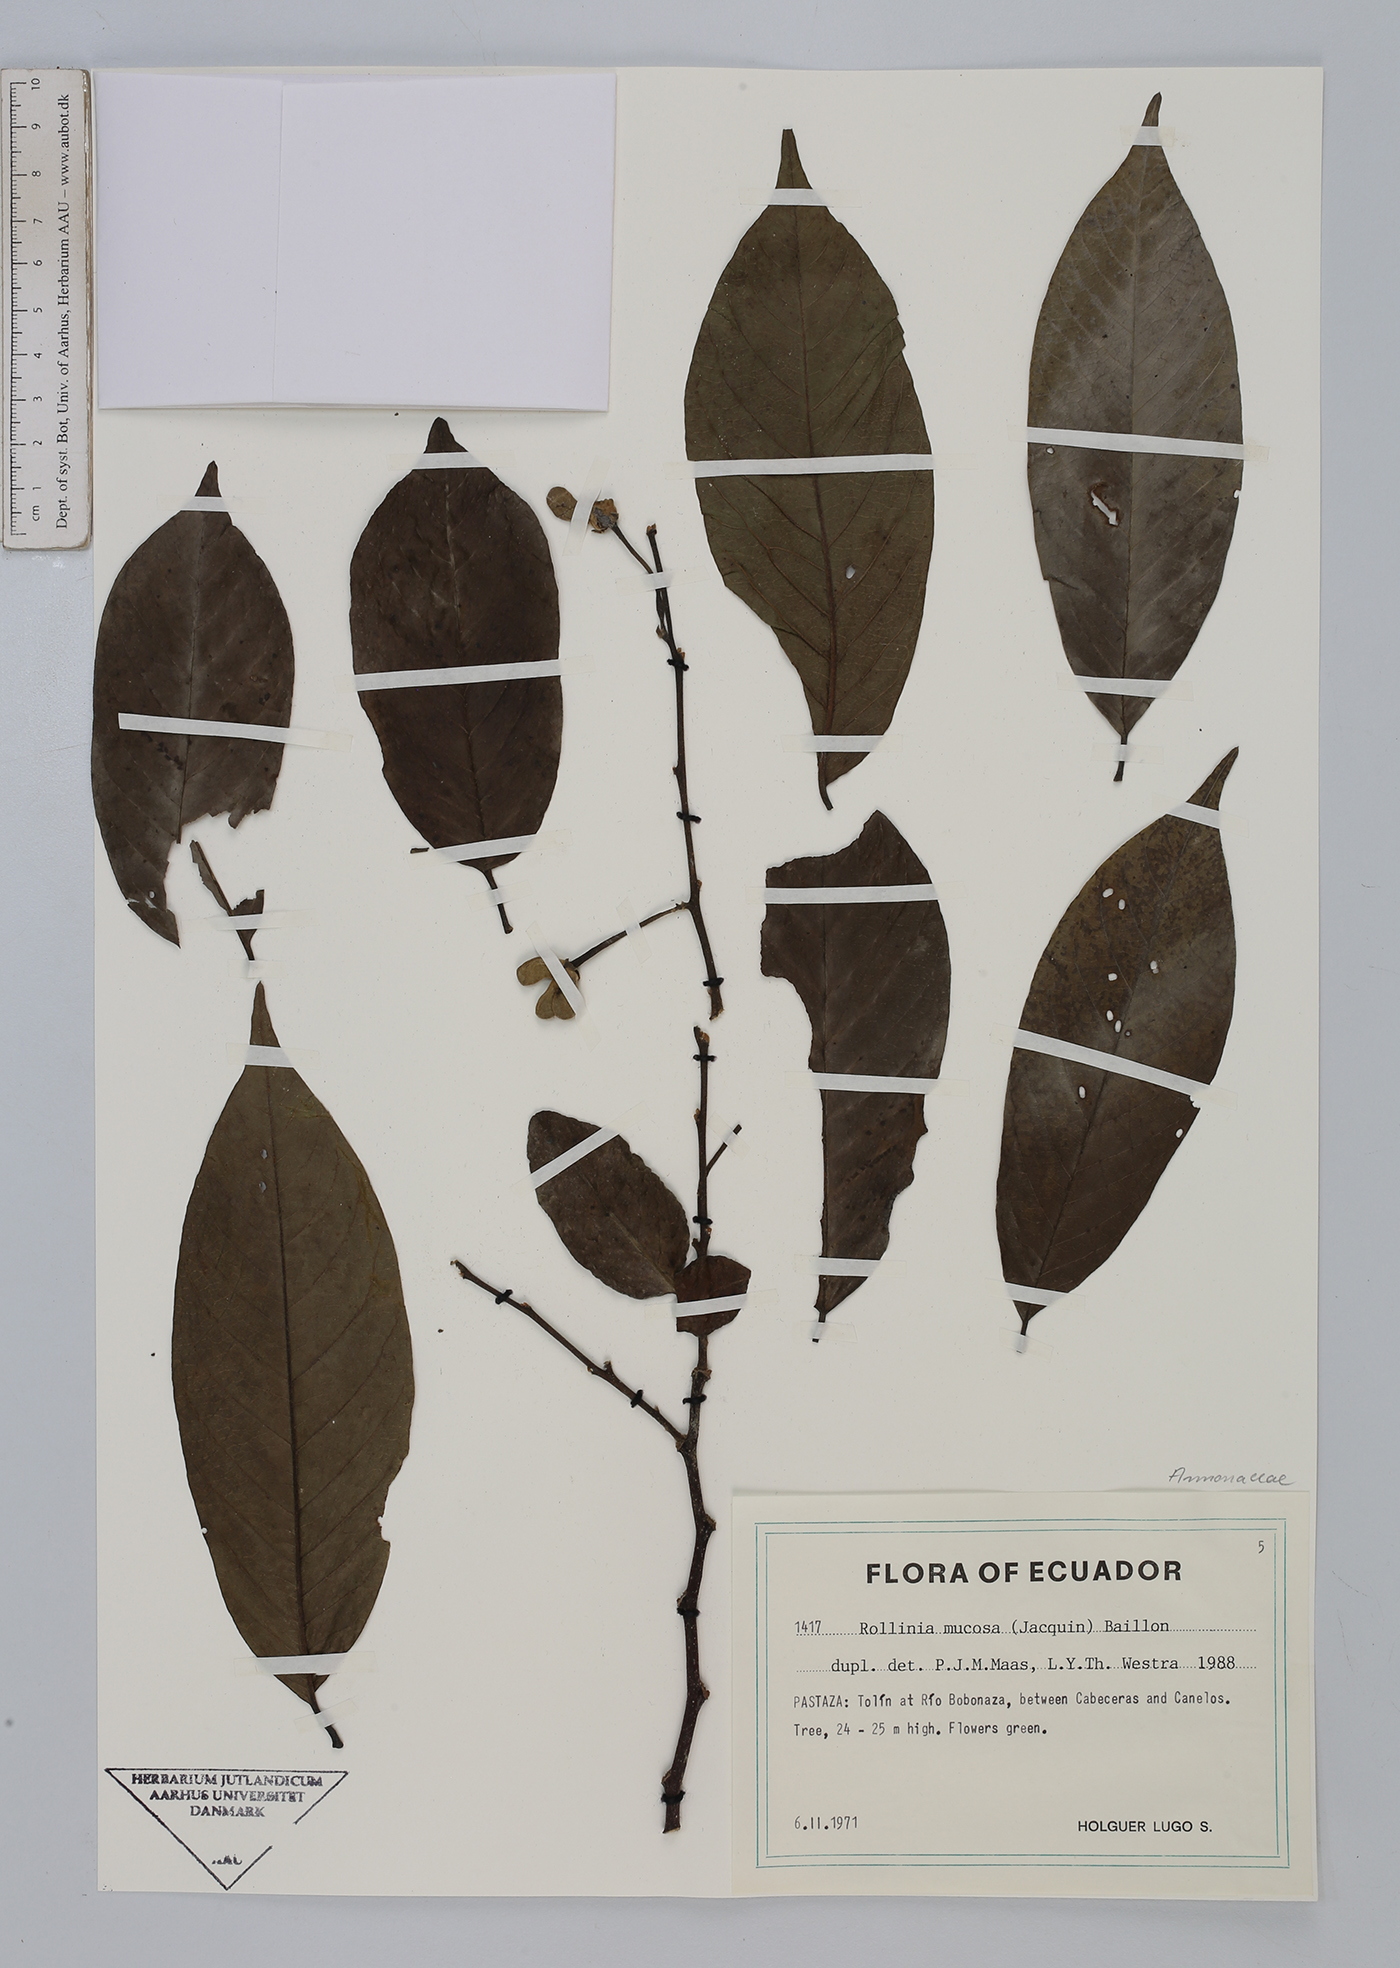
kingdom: Plantae
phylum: Tracheophyta
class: Magnoliopsida
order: Magnoliales
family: Annonaceae
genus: Annona
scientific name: Annona mucosa
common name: Sugar apple
